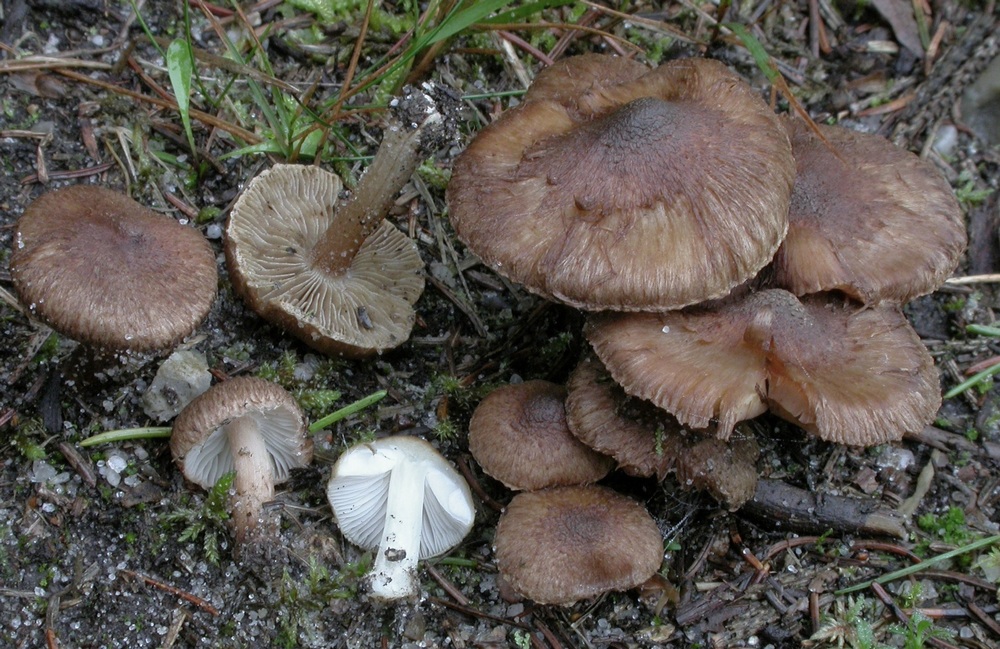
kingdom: Fungi
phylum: Basidiomycota
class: Agaricomycetes
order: Agaricales
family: Inocybaceae
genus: Inocybe
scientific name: Inocybe lacera
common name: laset trævlhat
